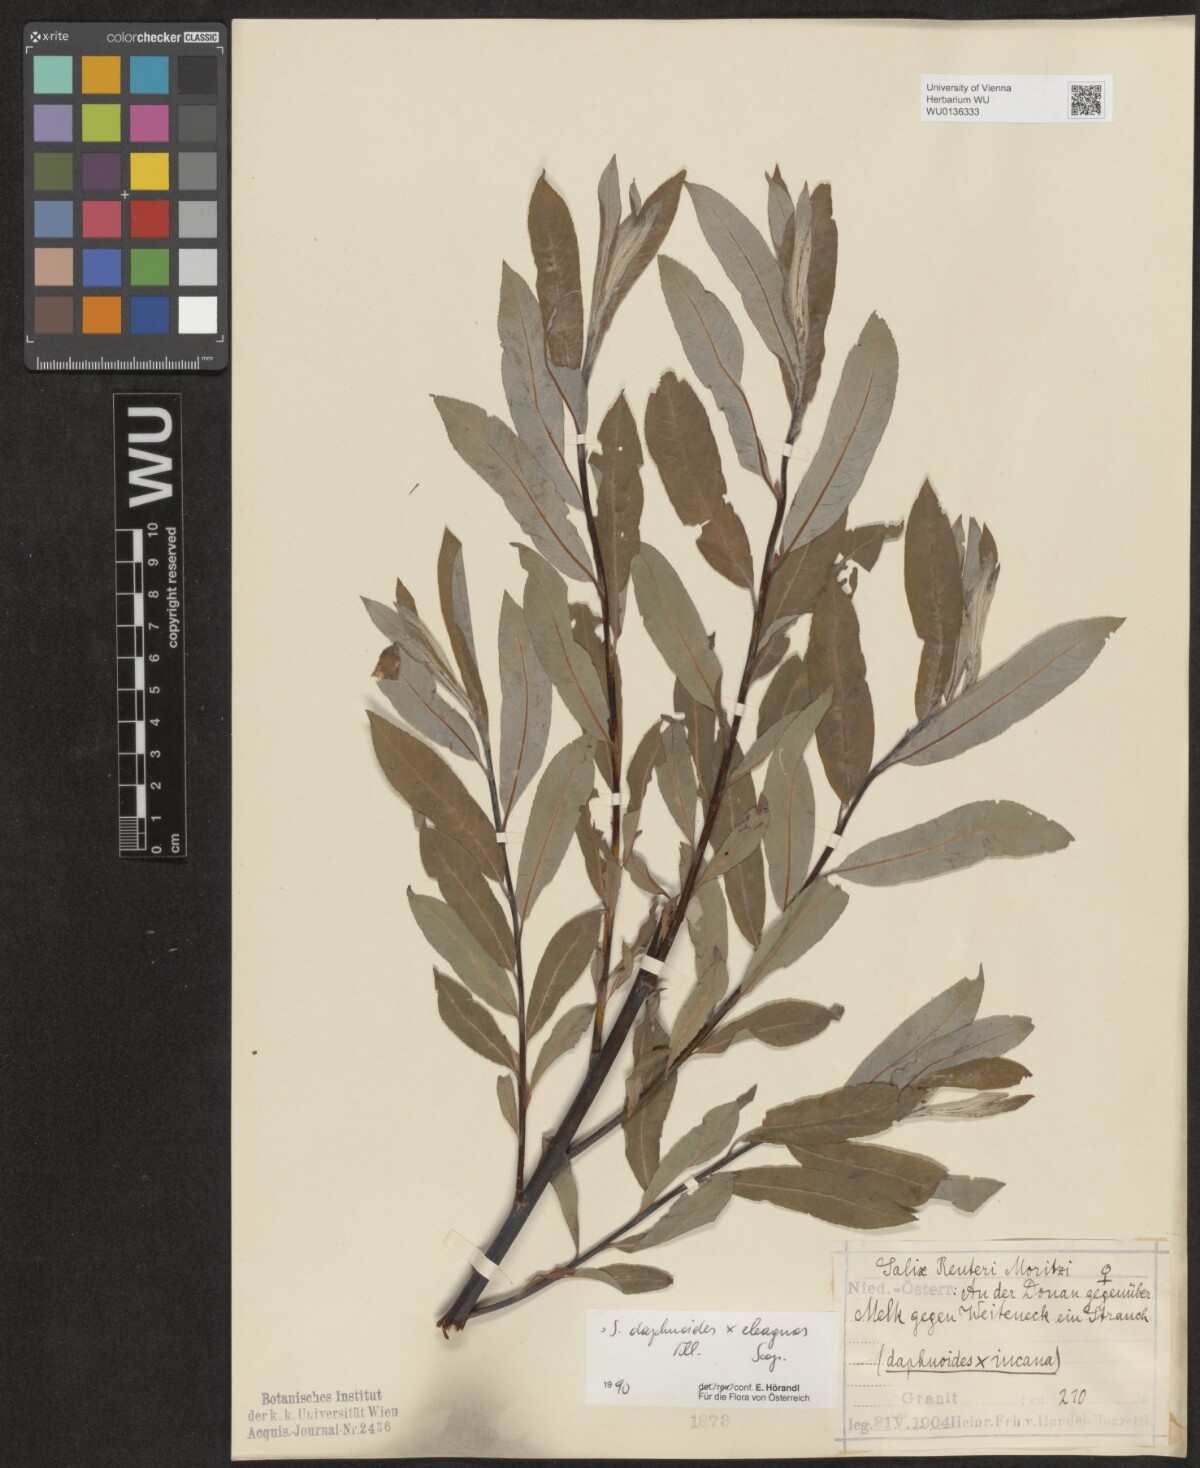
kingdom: Plantae
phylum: Tracheophyta
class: Magnoliopsida
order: Malpighiales
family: Salicaceae
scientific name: Salicaceae
